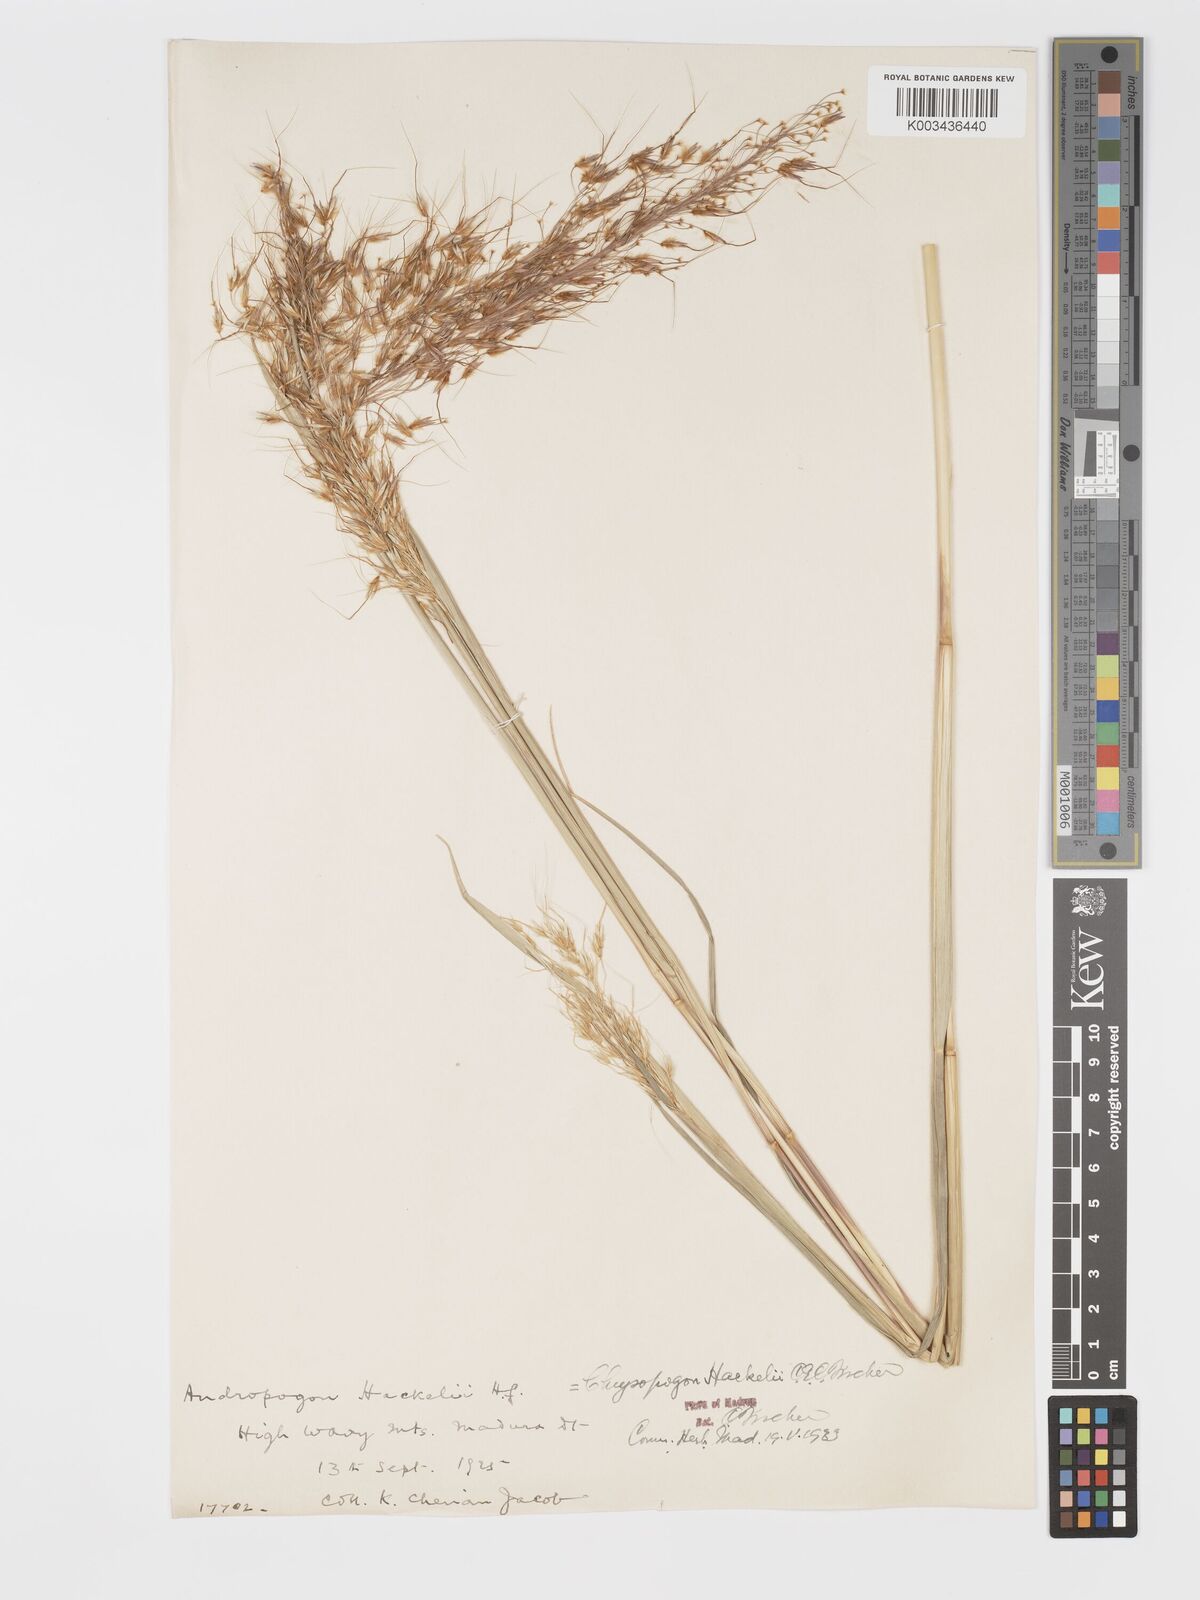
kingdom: Plantae
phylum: Tracheophyta
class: Liliopsida
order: Poales
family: Poaceae
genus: Chrysopogon
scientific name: Chrysopogon hackelii
